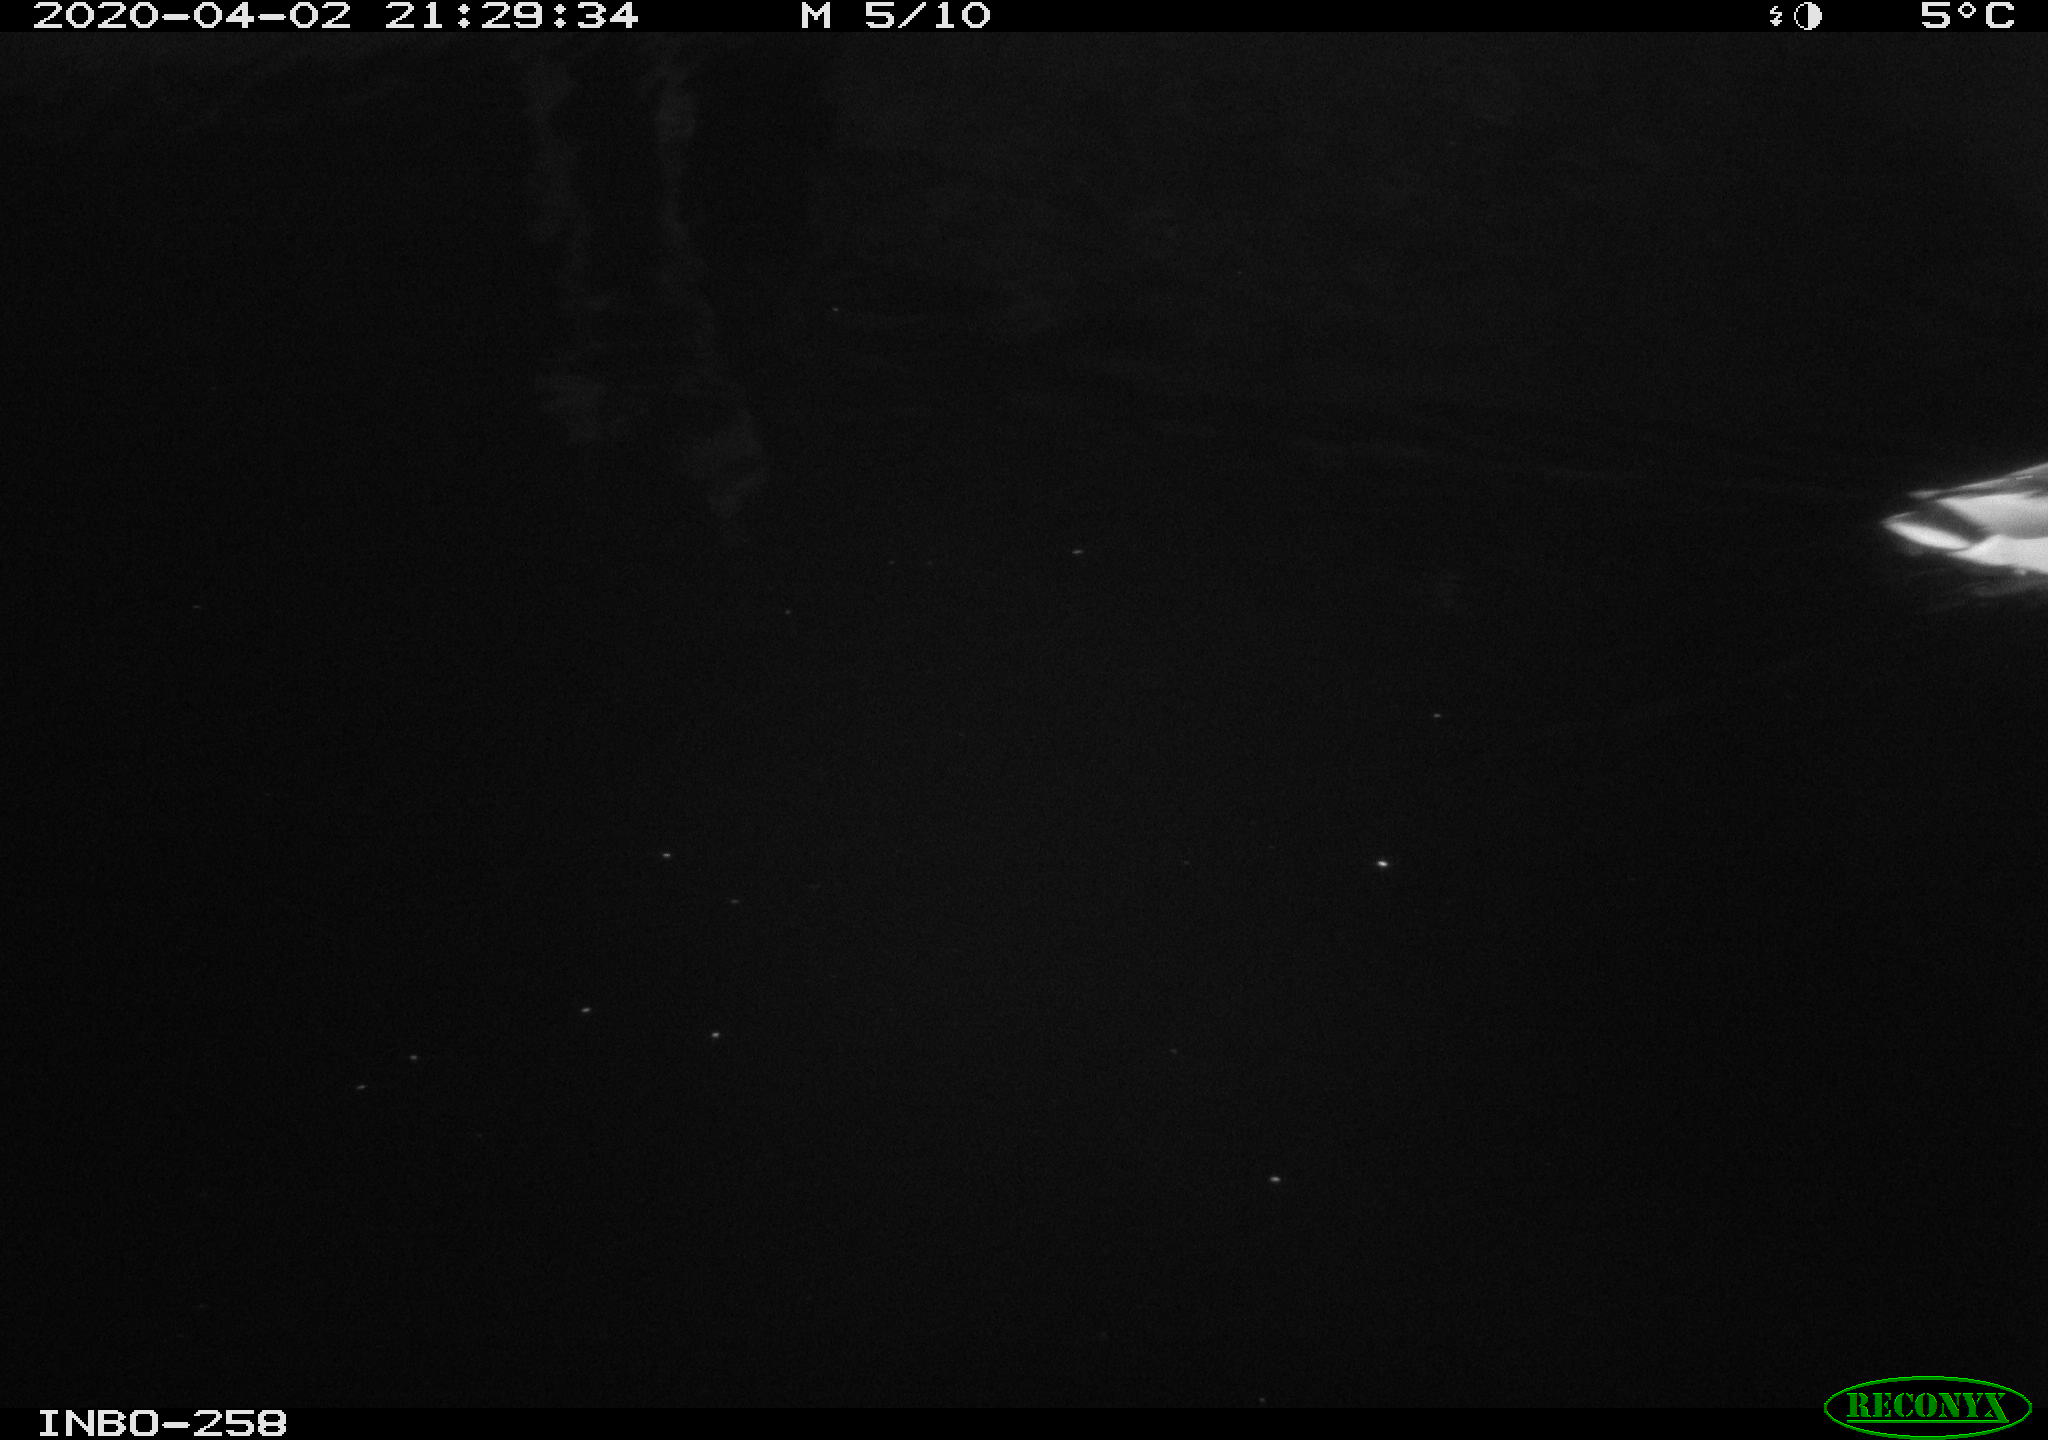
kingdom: Animalia
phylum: Chordata
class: Aves
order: Anseriformes
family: Anatidae
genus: Anas
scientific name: Anas platyrhynchos
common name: Mallard
